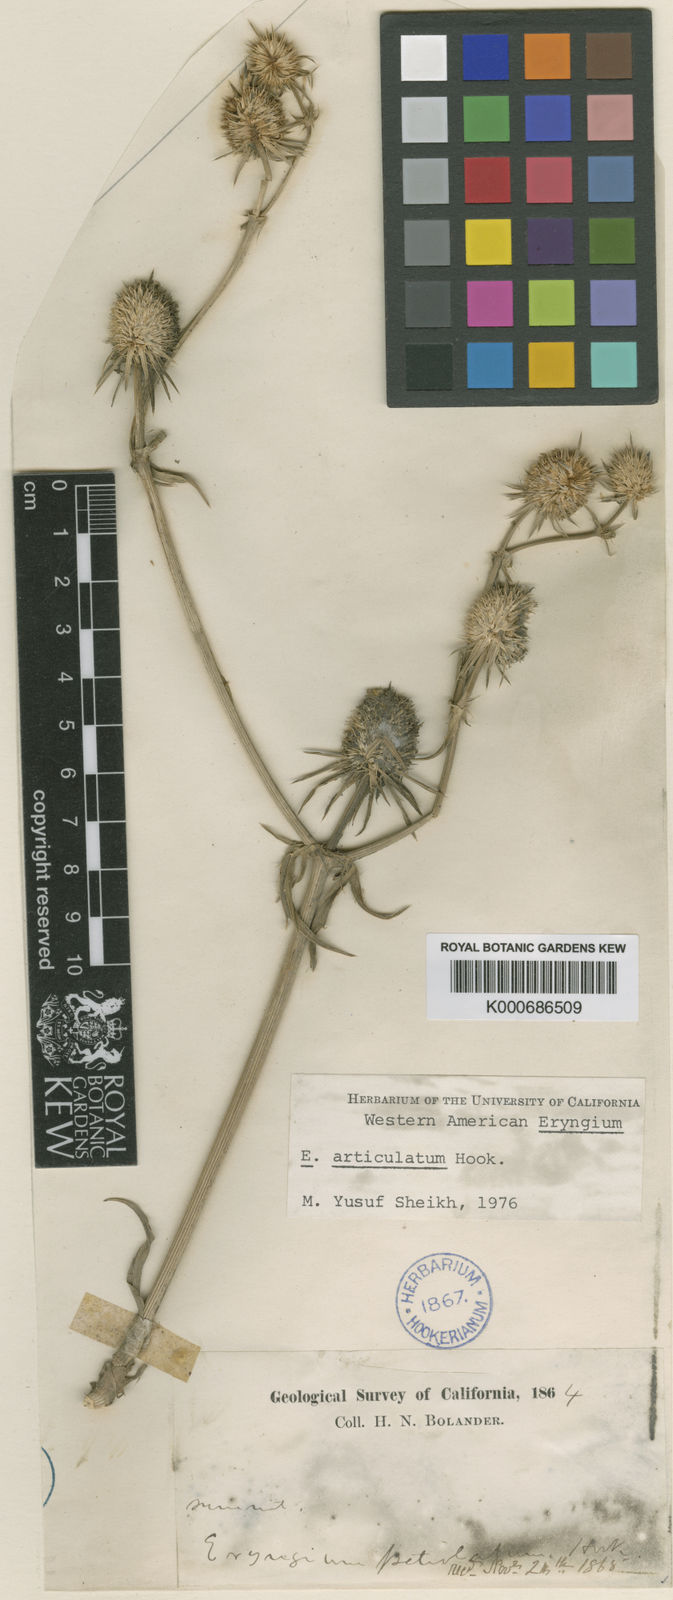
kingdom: Plantae
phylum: Tracheophyta
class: Magnoliopsida
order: Apiales
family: Apiaceae
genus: Eryngium
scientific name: Eryngium articulatum
